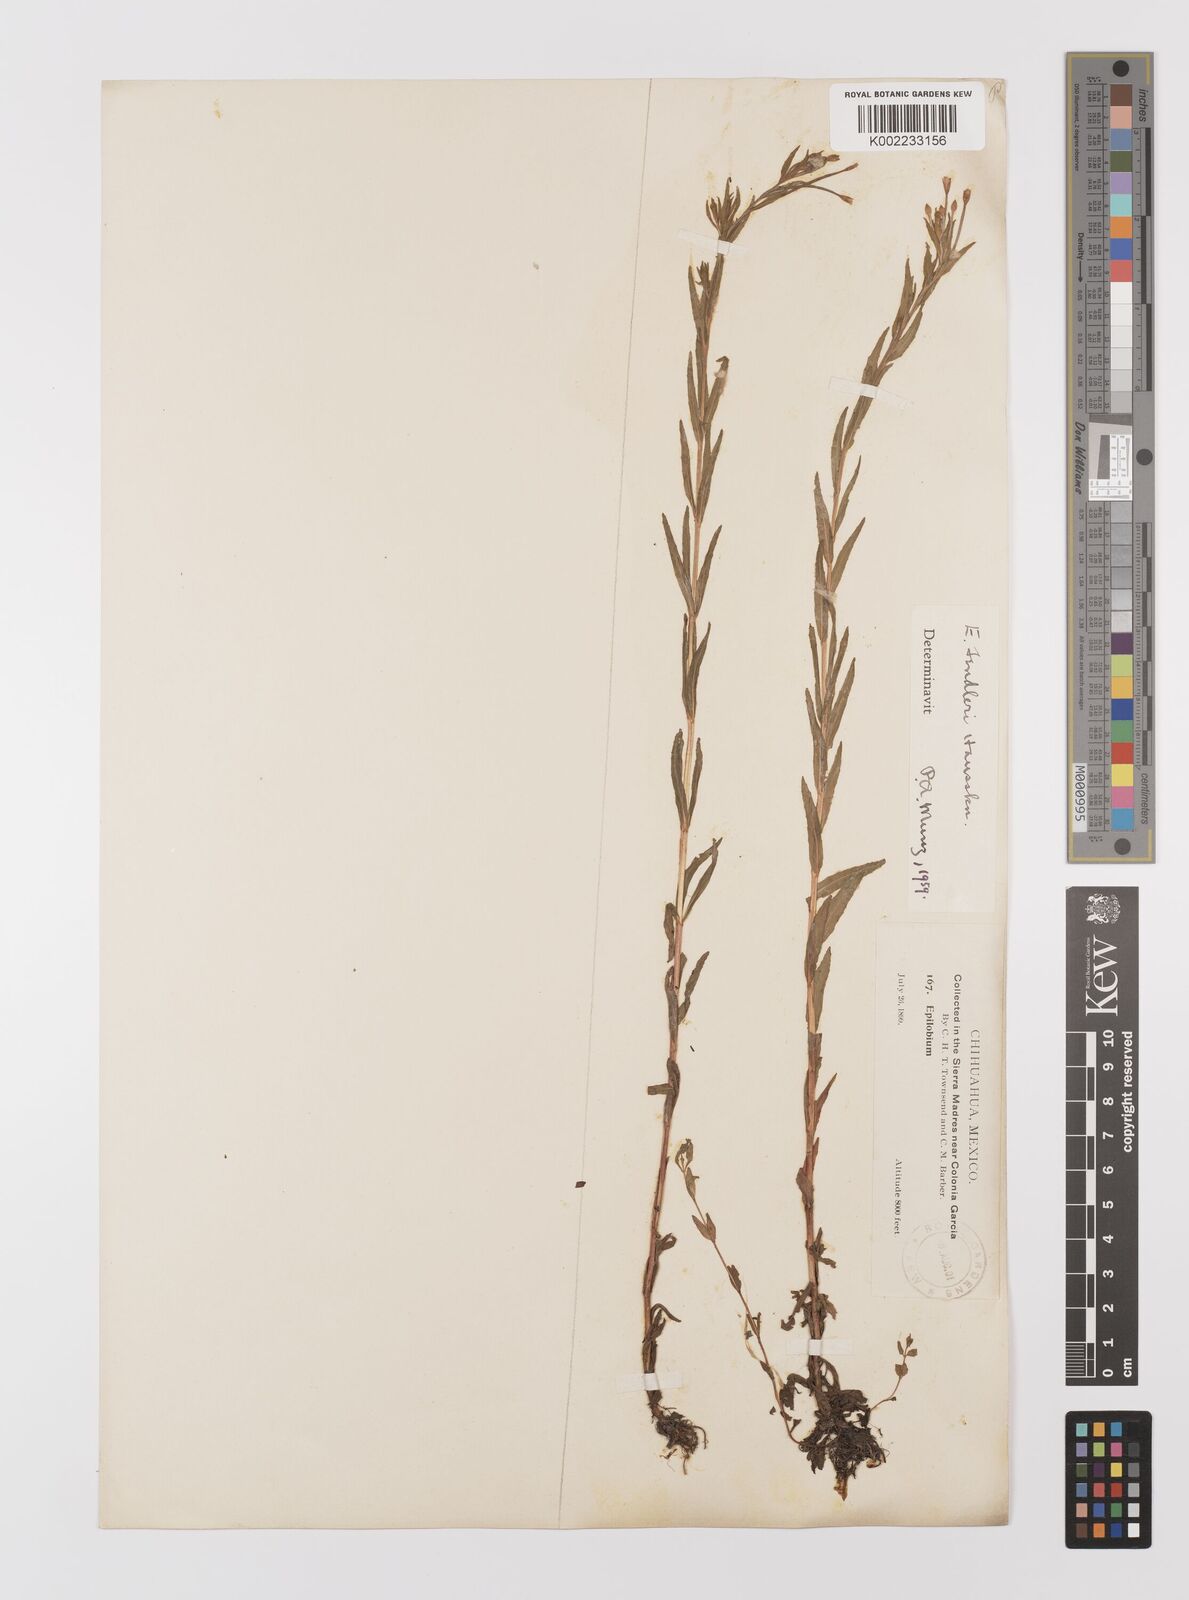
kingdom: Plantae
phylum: Tracheophyta
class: Magnoliopsida
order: Myrtales
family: Onagraceae
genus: Epilobium
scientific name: Epilobium ciliatum
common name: American willowherb
